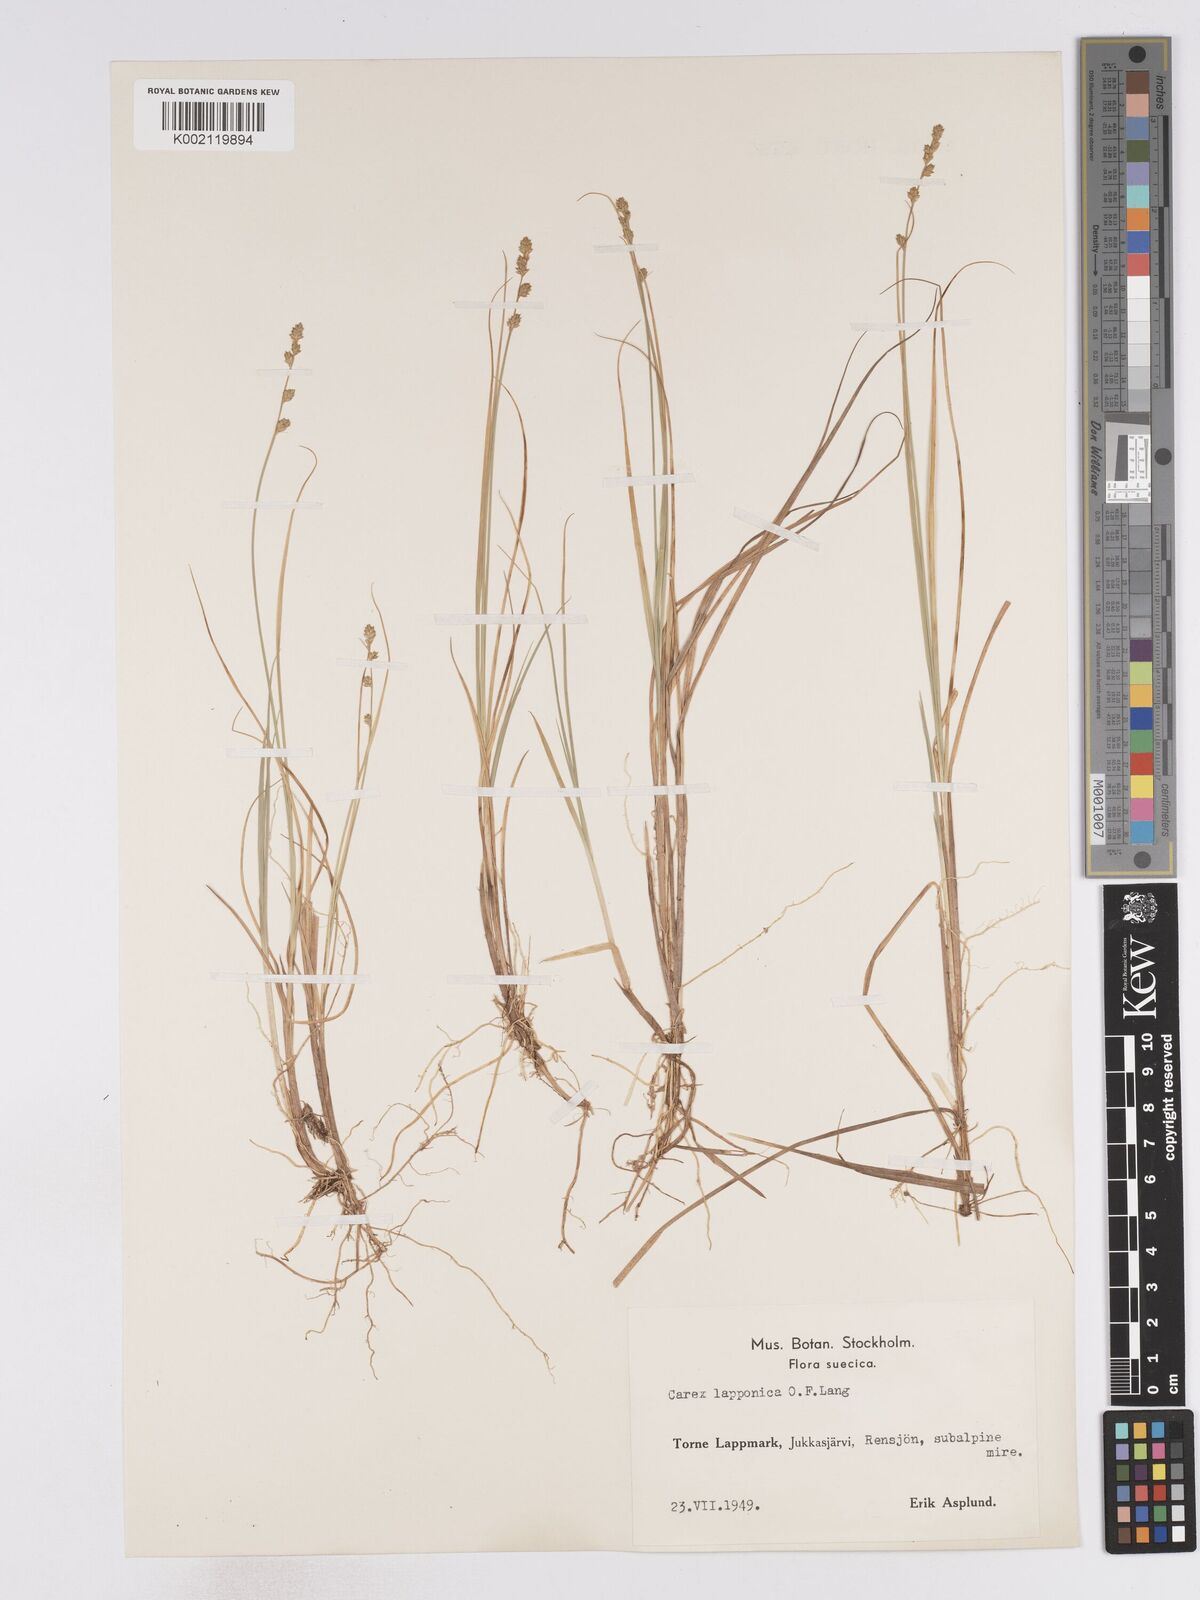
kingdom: Plantae
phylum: Tracheophyta
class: Liliopsida
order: Poales
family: Cyperaceae
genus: Carex
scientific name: Carex lapponica
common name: Lapland sedge
